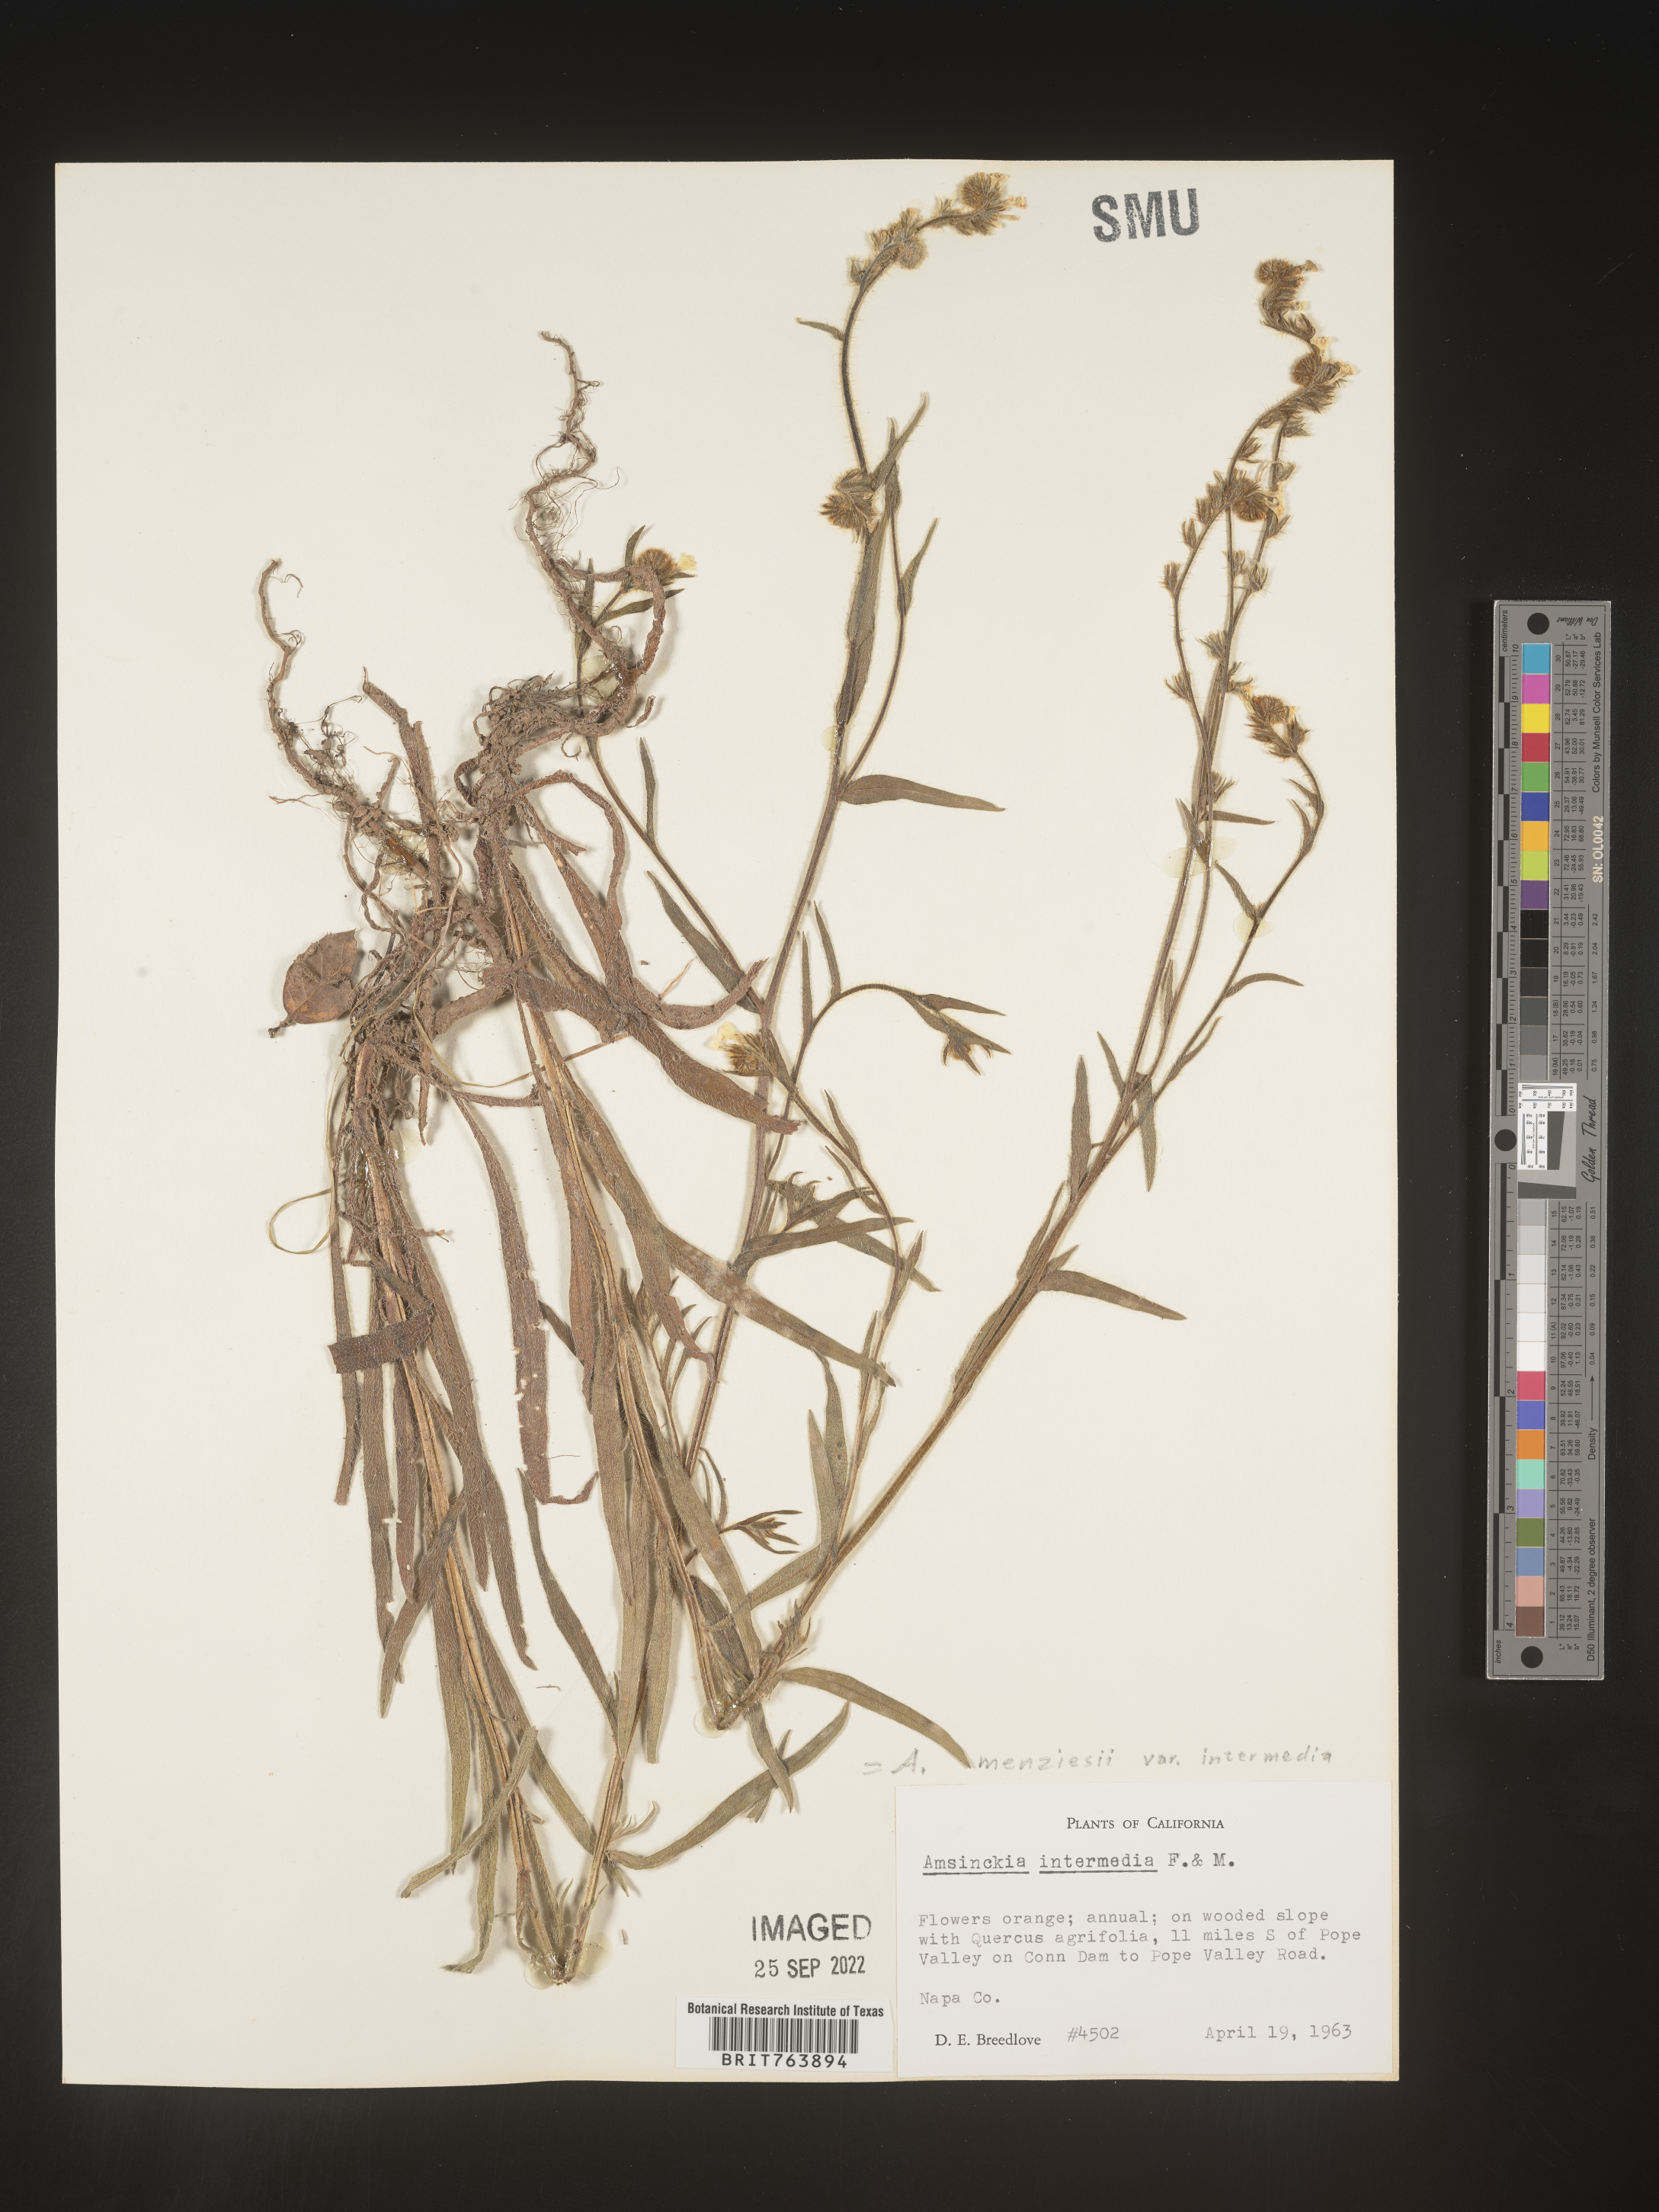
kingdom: Plantae
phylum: Tracheophyta
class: Magnoliopsida
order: Boraginales
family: Boraginaceae
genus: Amsinckia
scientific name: Amsinckia menziesii
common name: Menzies' fiddleneck
